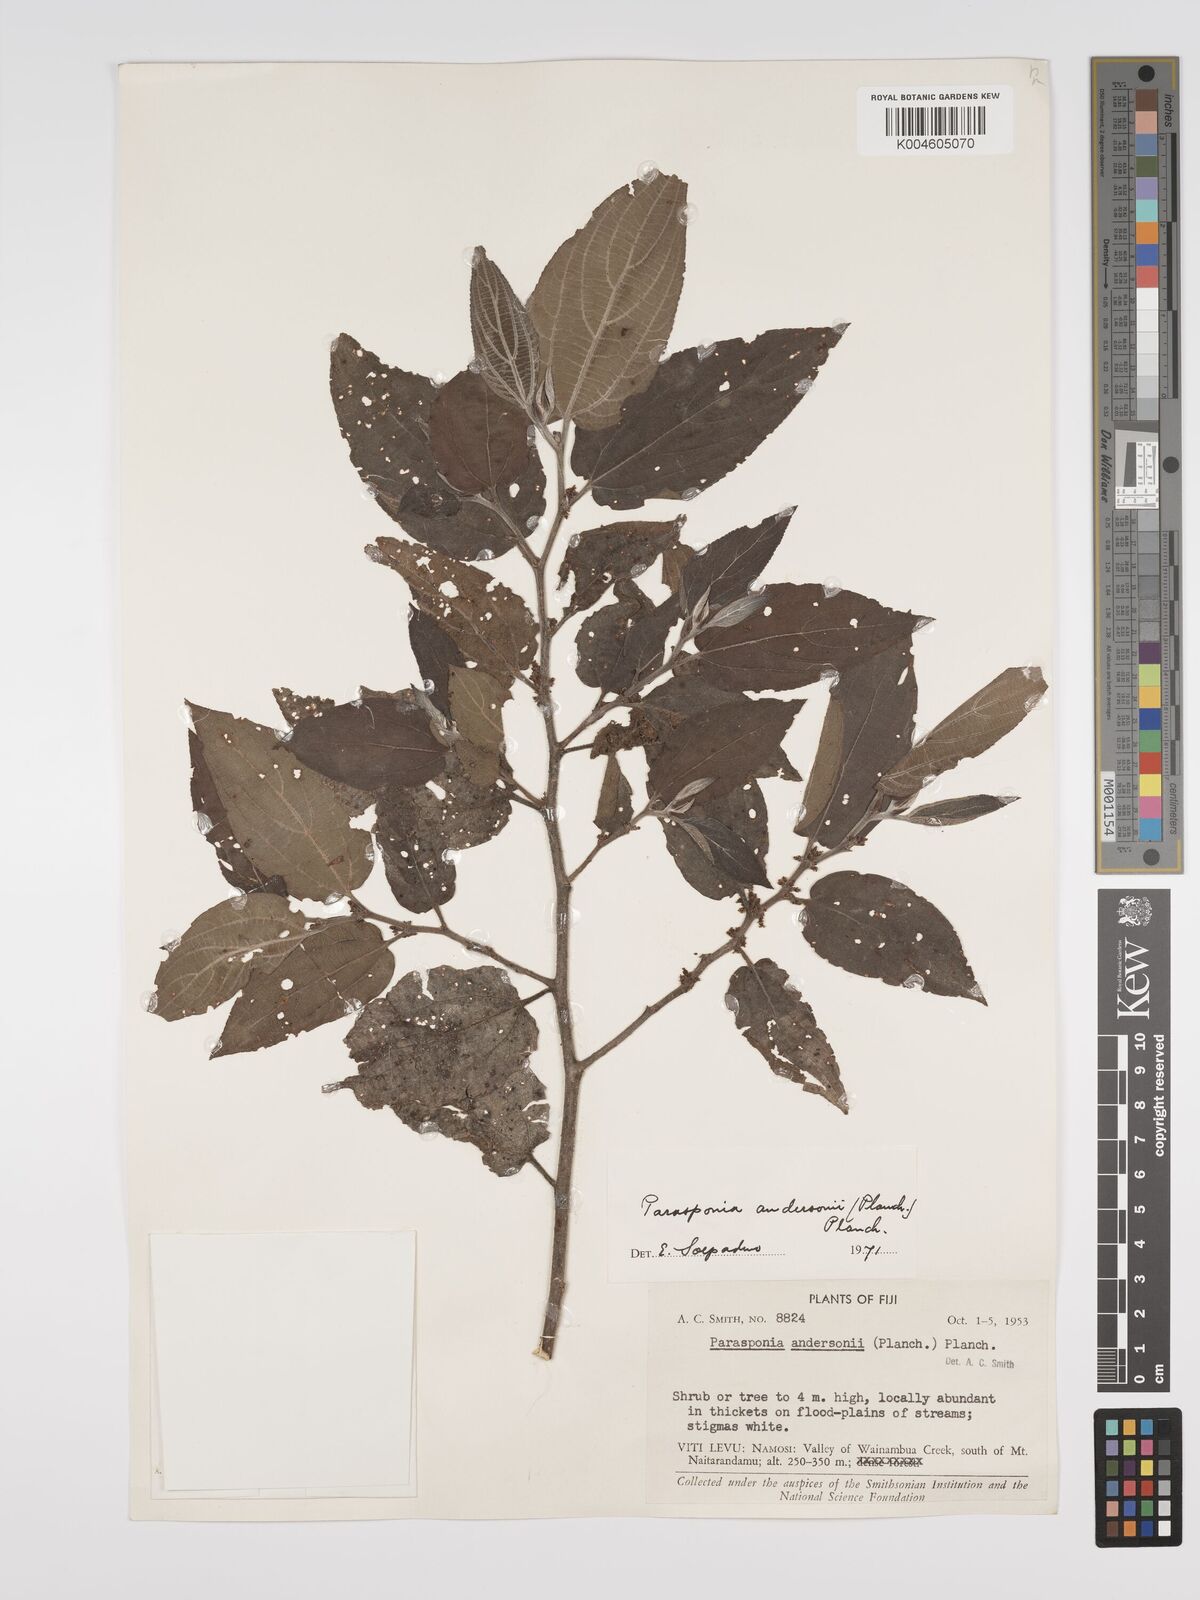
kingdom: Plantae
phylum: Tracheophyta
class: Magnoliopsida
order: Rosales
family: Cannabaceae
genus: Trema
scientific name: Trema andersonii
